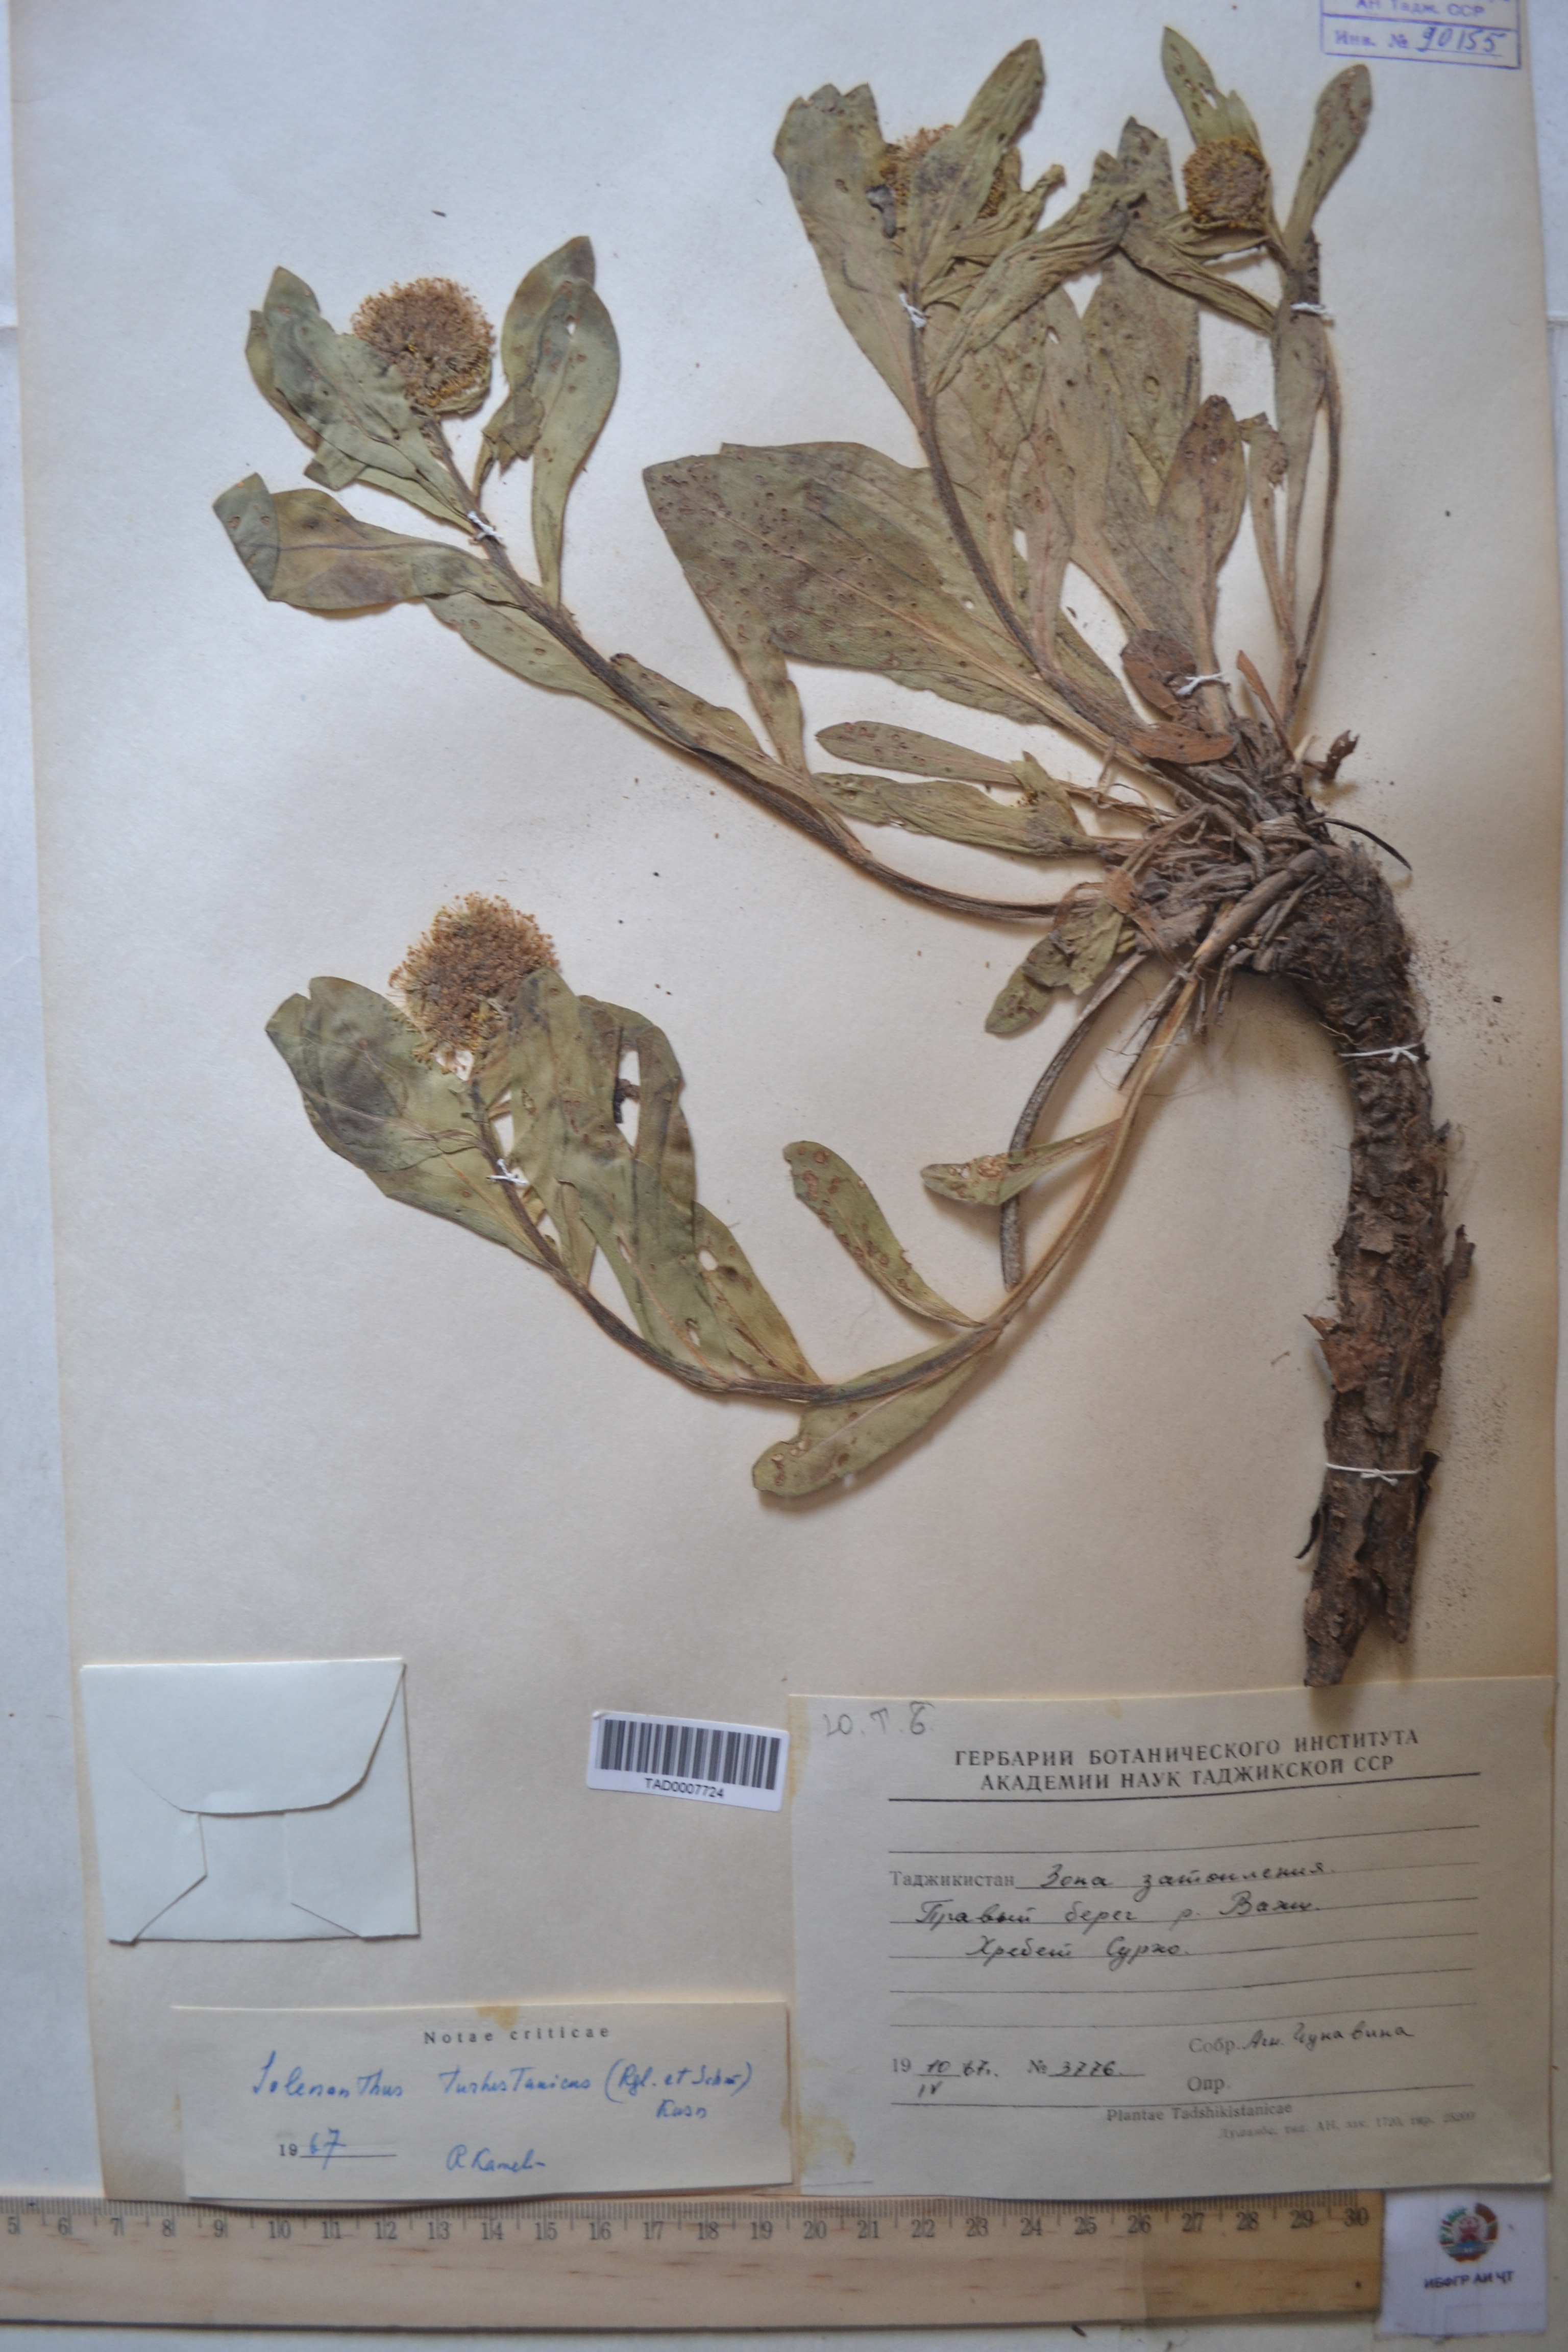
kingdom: Plantae
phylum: Tracheophyta
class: Magnoliopsida
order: Boraginales
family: Boraginaceae
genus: Solenanthus
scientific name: Solenanthus turkestanicus
